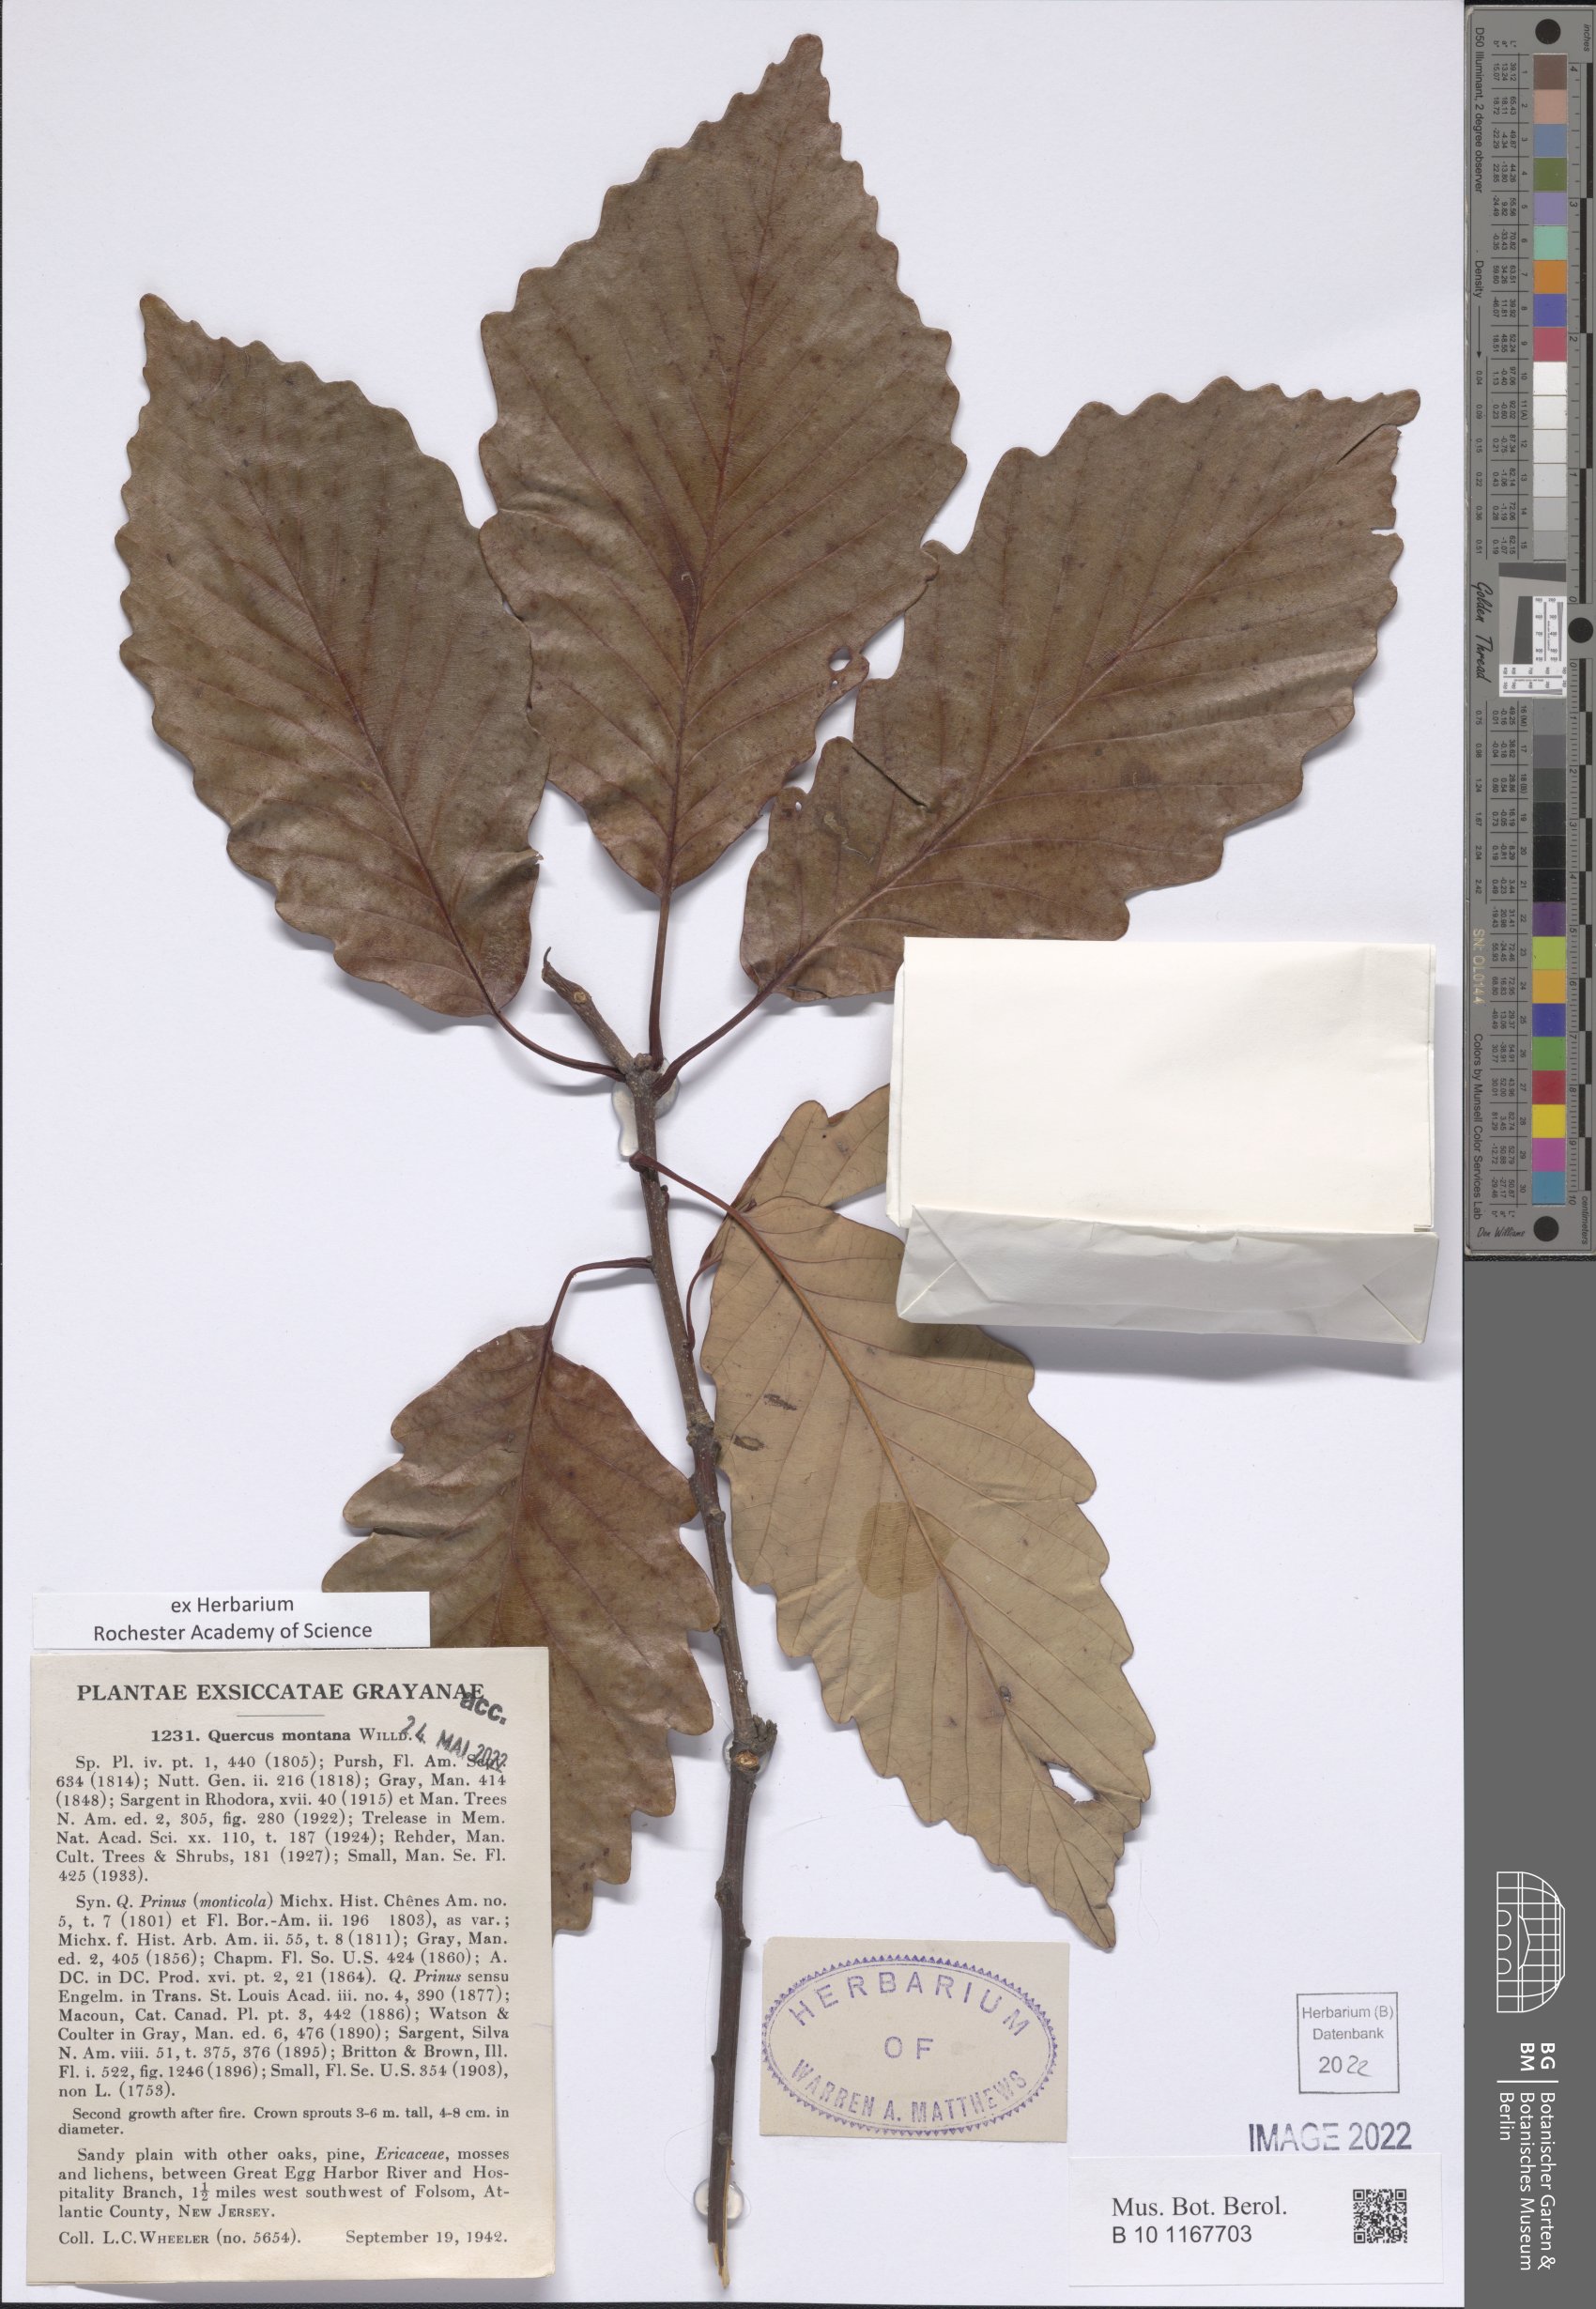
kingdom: Plantae
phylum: Tracheophyta
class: Magnoliopsida
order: Fagales
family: Fagaceae
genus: Quercus
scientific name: Quercus montana
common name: Chestnut oak
